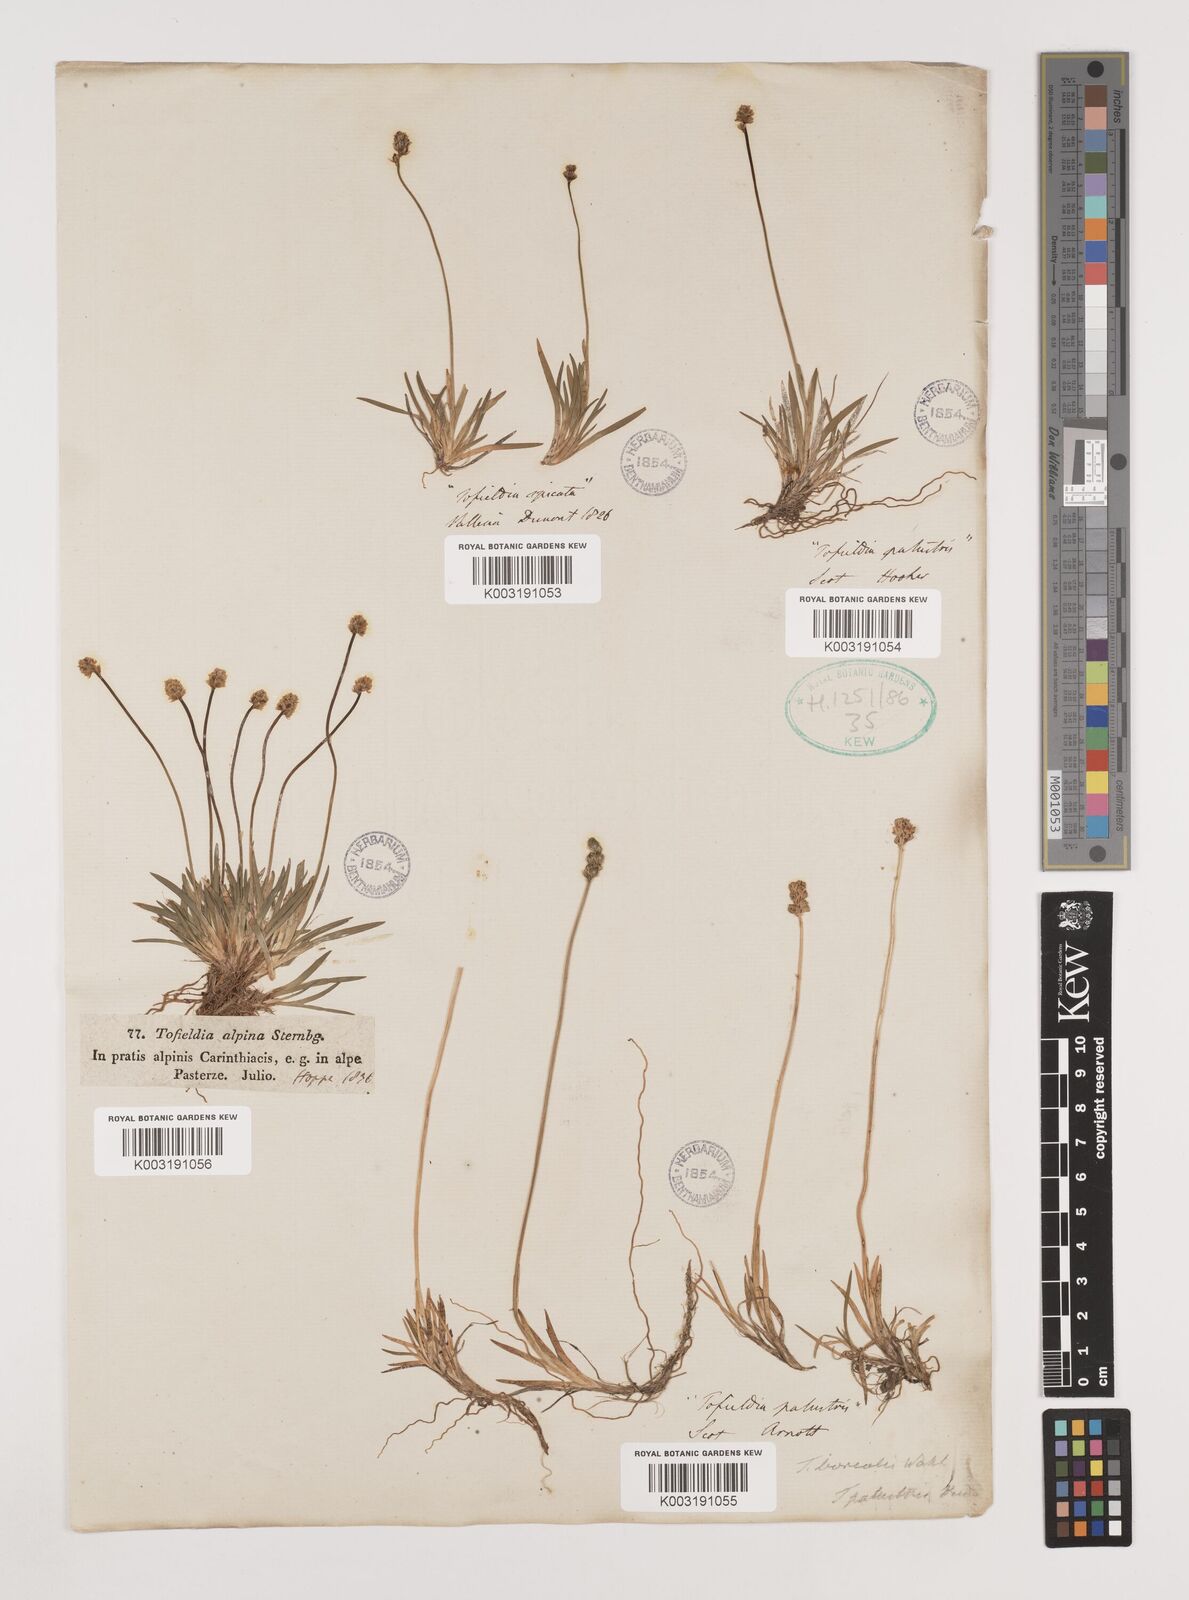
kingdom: Plantae
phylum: Tracheophyta
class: Liliopsida
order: Alismatales
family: Tofieldiaceae
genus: Tofieldia
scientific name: Tofieldia pusilla
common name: Scottish false asphodel
